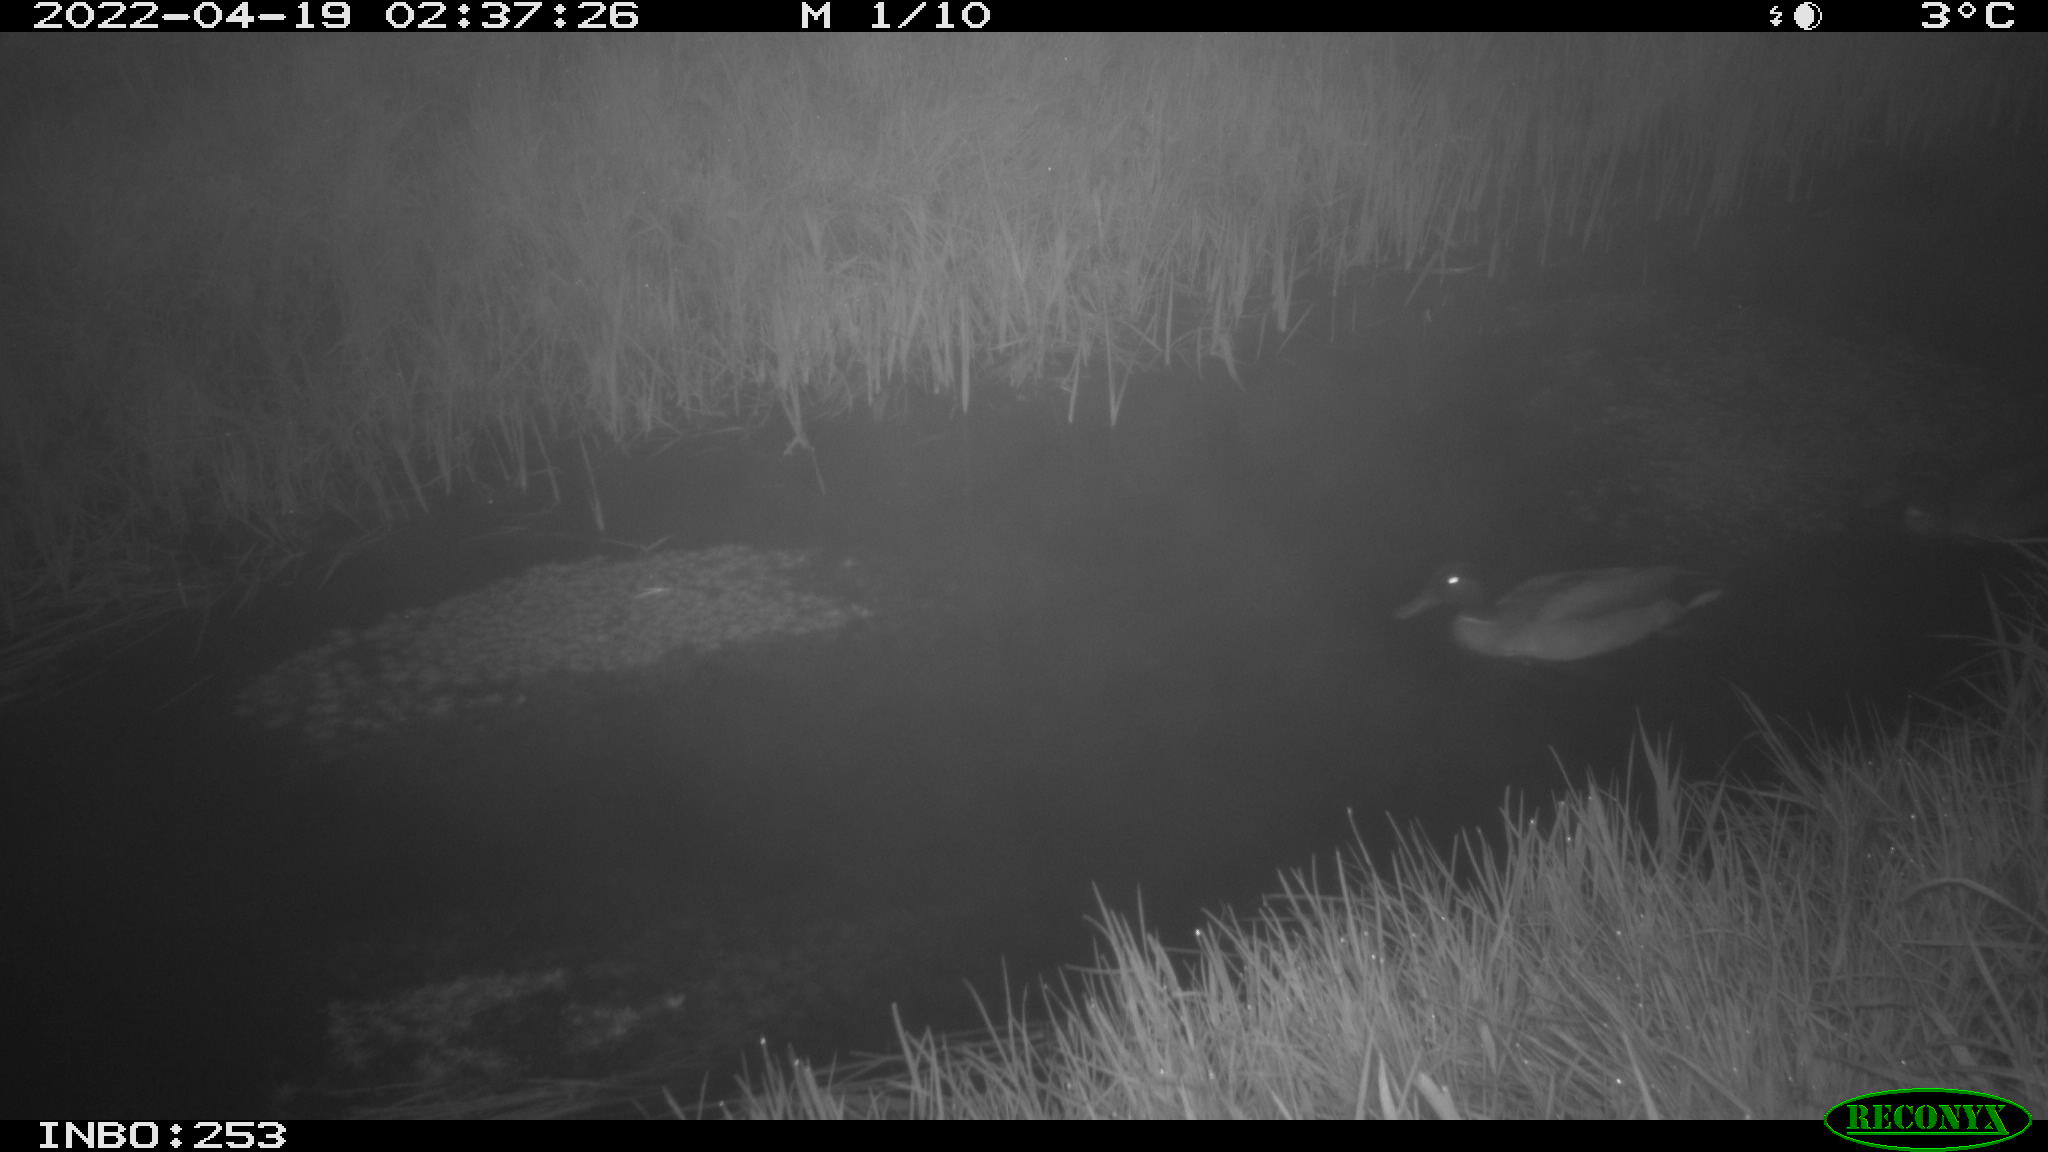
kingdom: Animalia
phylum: Chordata
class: Aves
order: Anseriformes
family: Anatidae
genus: Anas
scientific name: Anas platyrhynchos
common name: Mallard
